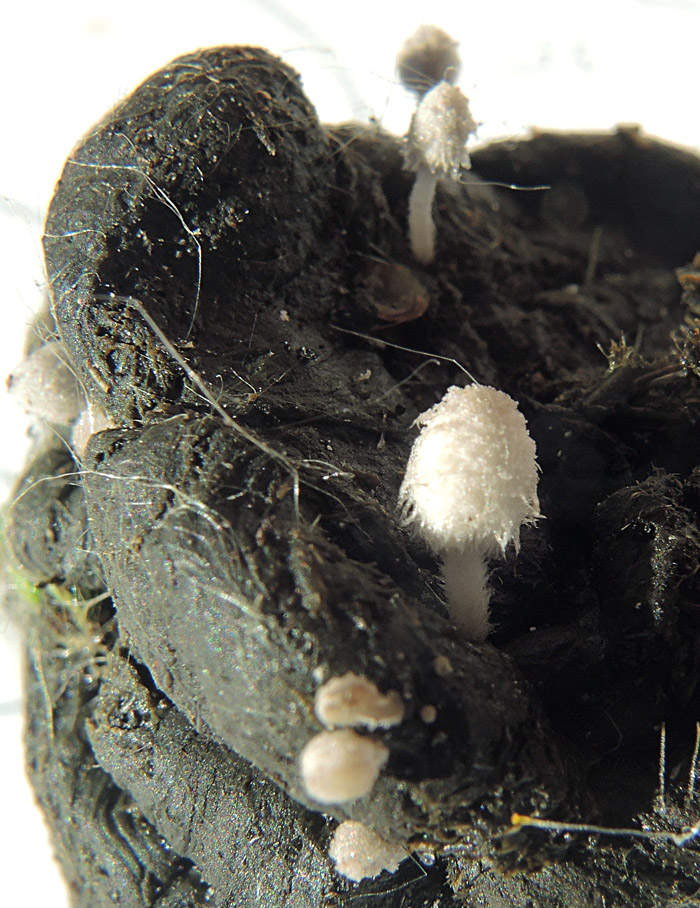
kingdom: Fungi
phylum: Basidiomycota
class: Agaricomycetes
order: Agaricales
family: Psathyrellaceae
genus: Coprinopsis
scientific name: Coprinopsis stercorea
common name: pjusket blækhat
